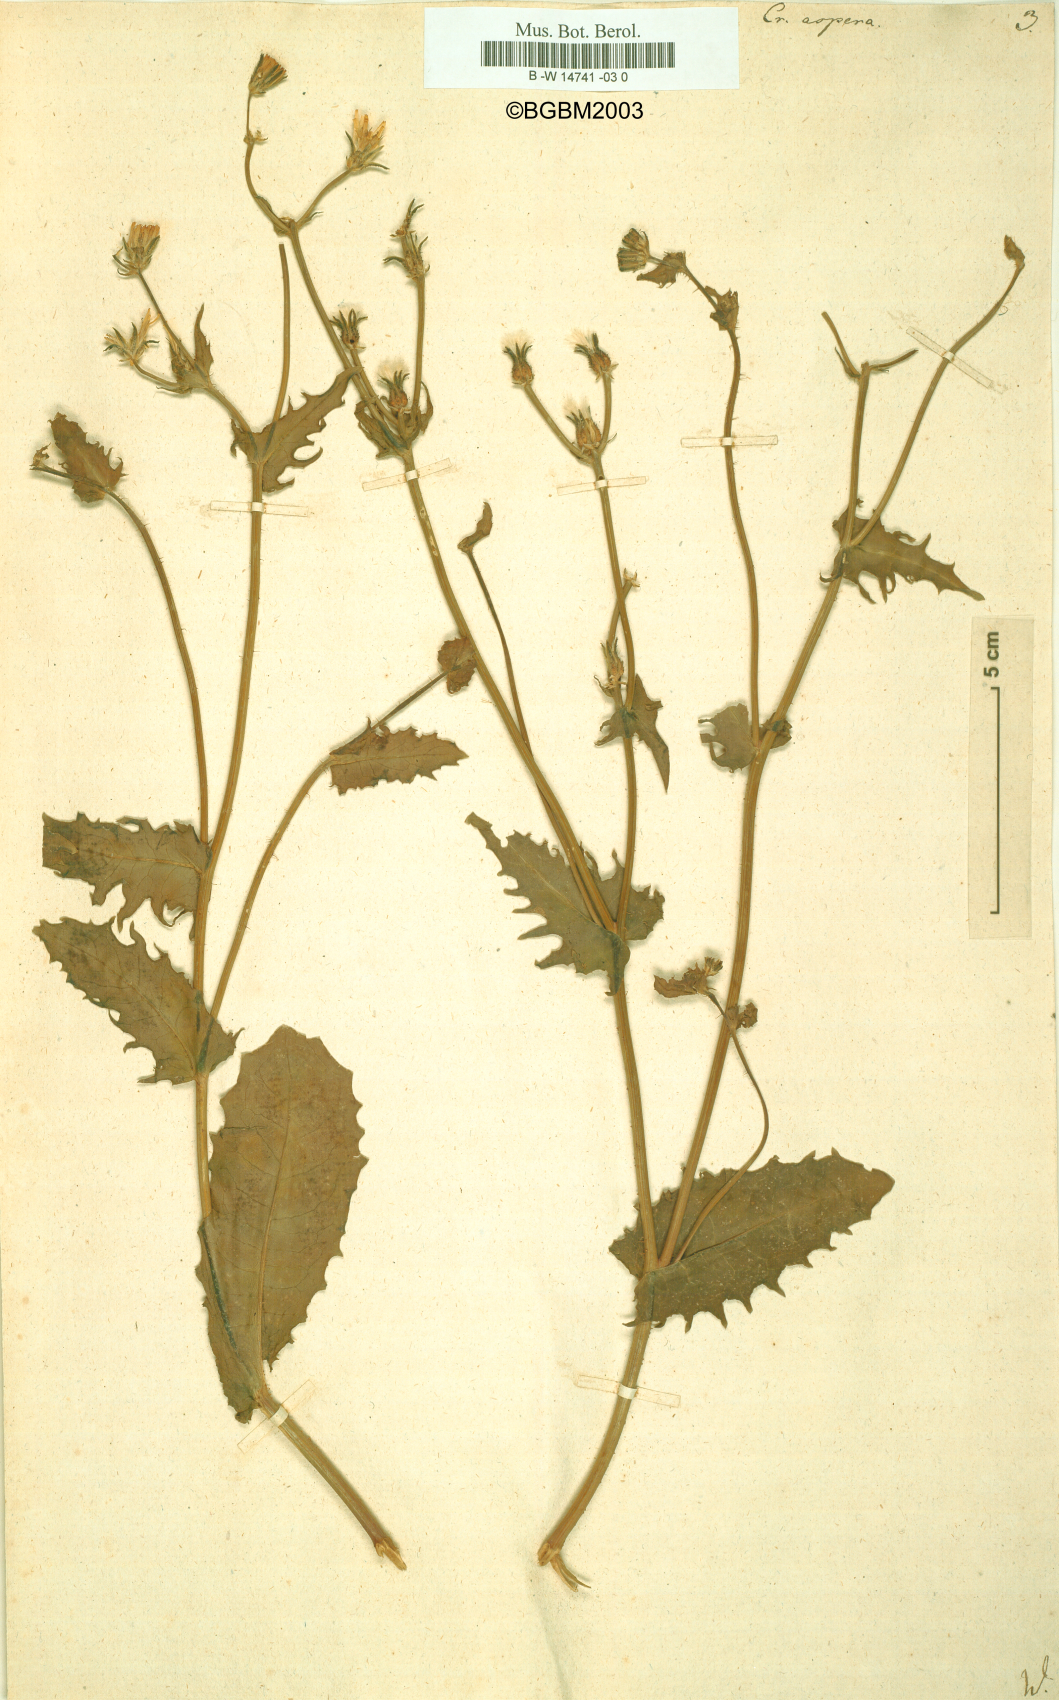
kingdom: Plantae
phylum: Tracheophyta
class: Magnoliopsida
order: Asterales
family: Asteraceae
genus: Crepis
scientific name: Crepis aspera
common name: Hawk's-beard
